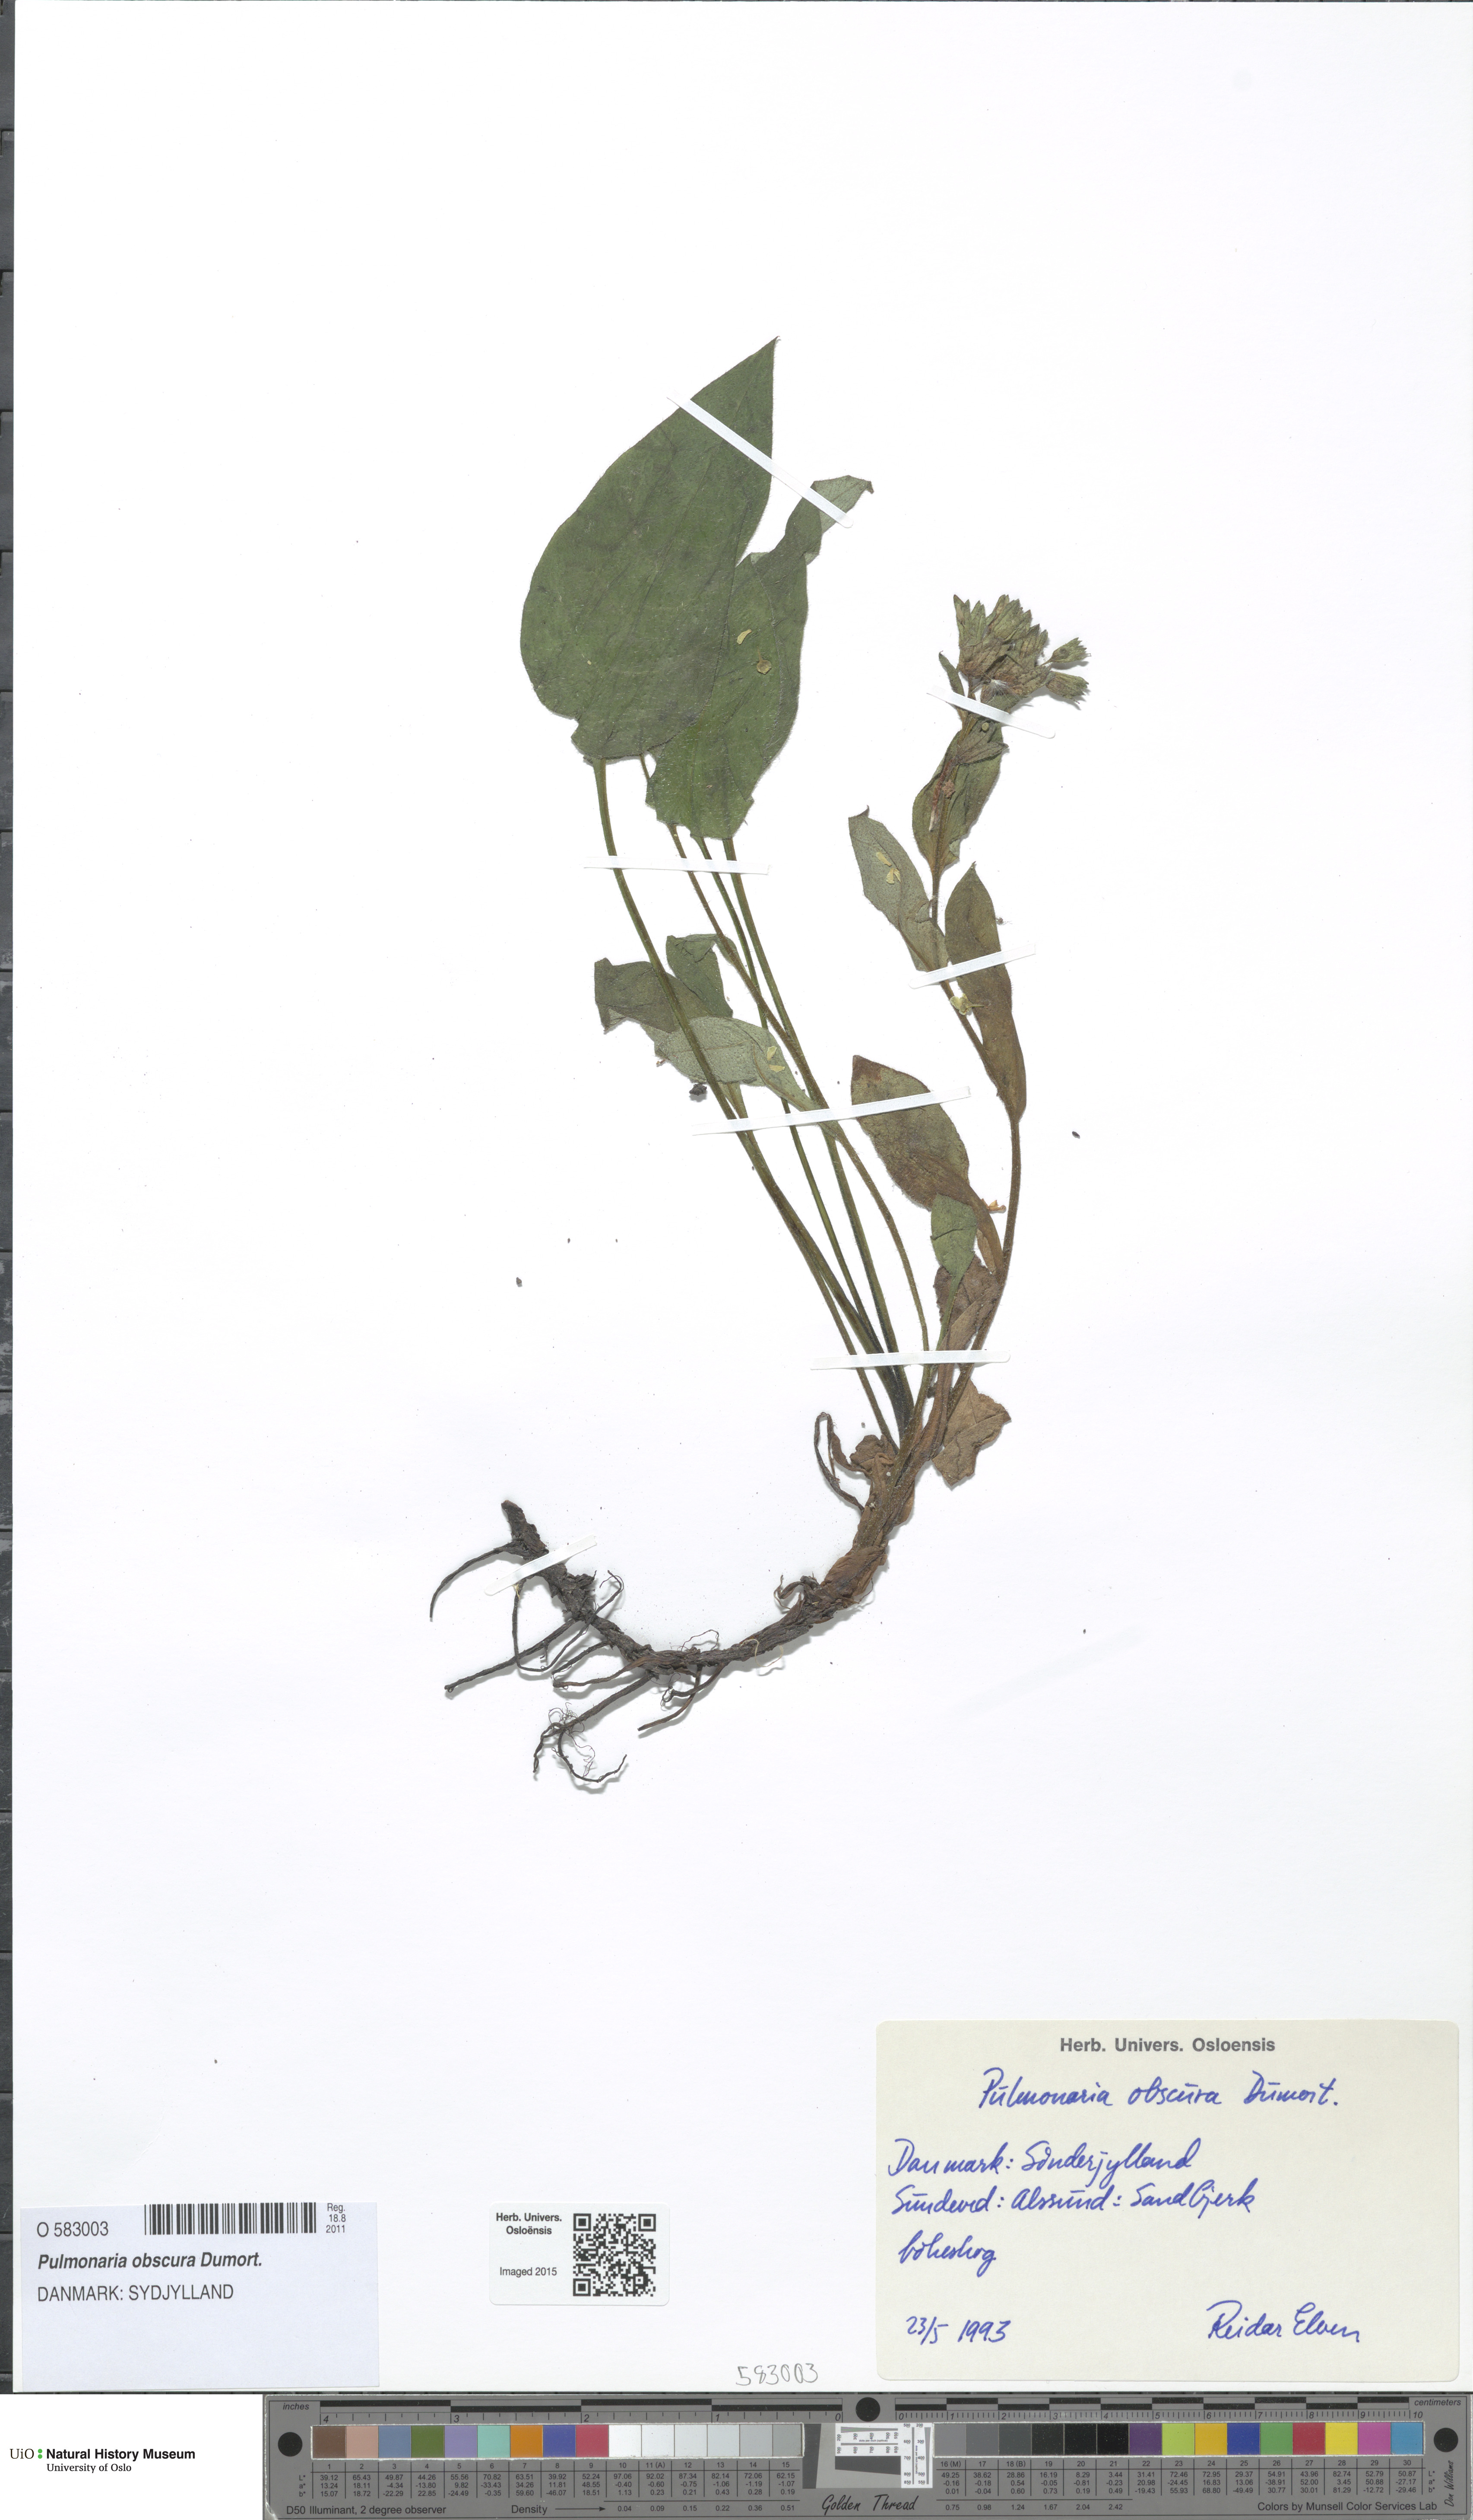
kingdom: Plantae
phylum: Tracheophyta
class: Magnoliopsida
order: Boraginales
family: Boraginaceae
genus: Pulmonaria
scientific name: Pulmonaria obscura
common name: Suffolk lungwort
